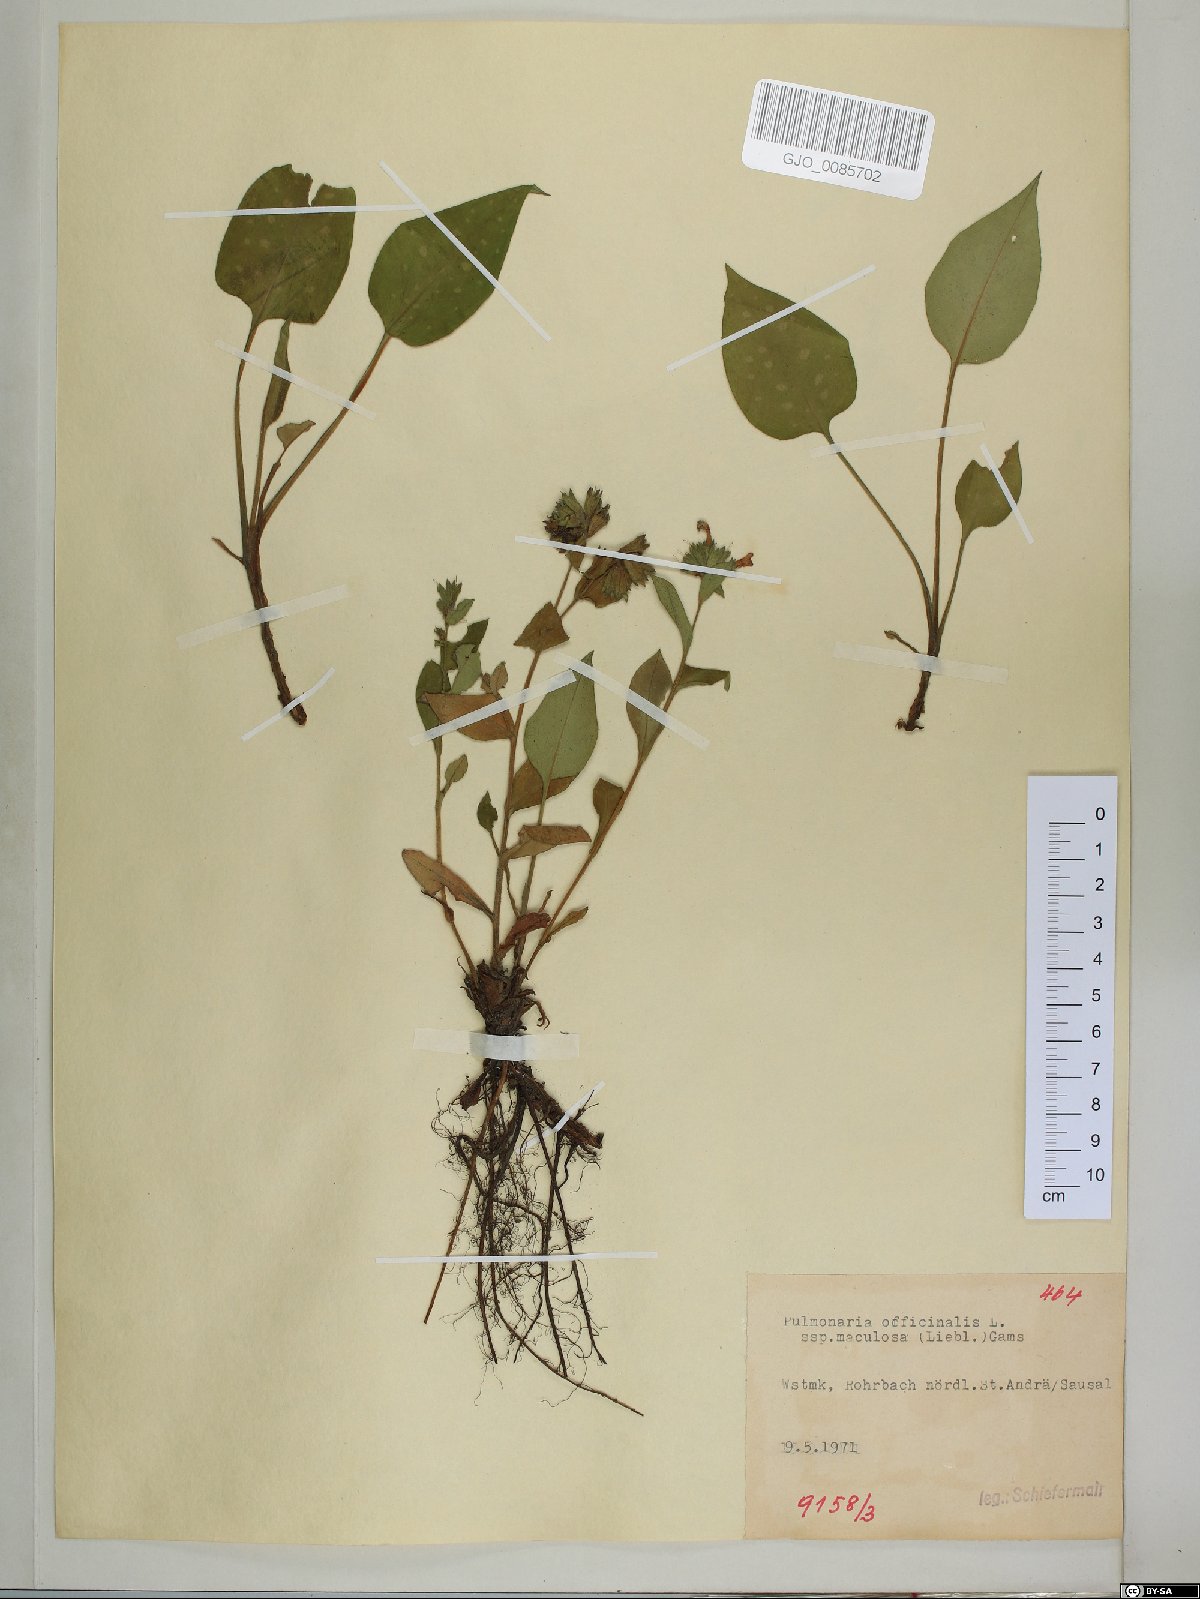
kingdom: Plantae
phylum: Tracheophyta
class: Magnoliopsida
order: Boraginales
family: Boraginaceae
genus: Pulmonaria
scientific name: Pulmonaria officinalis
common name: Lungwort
